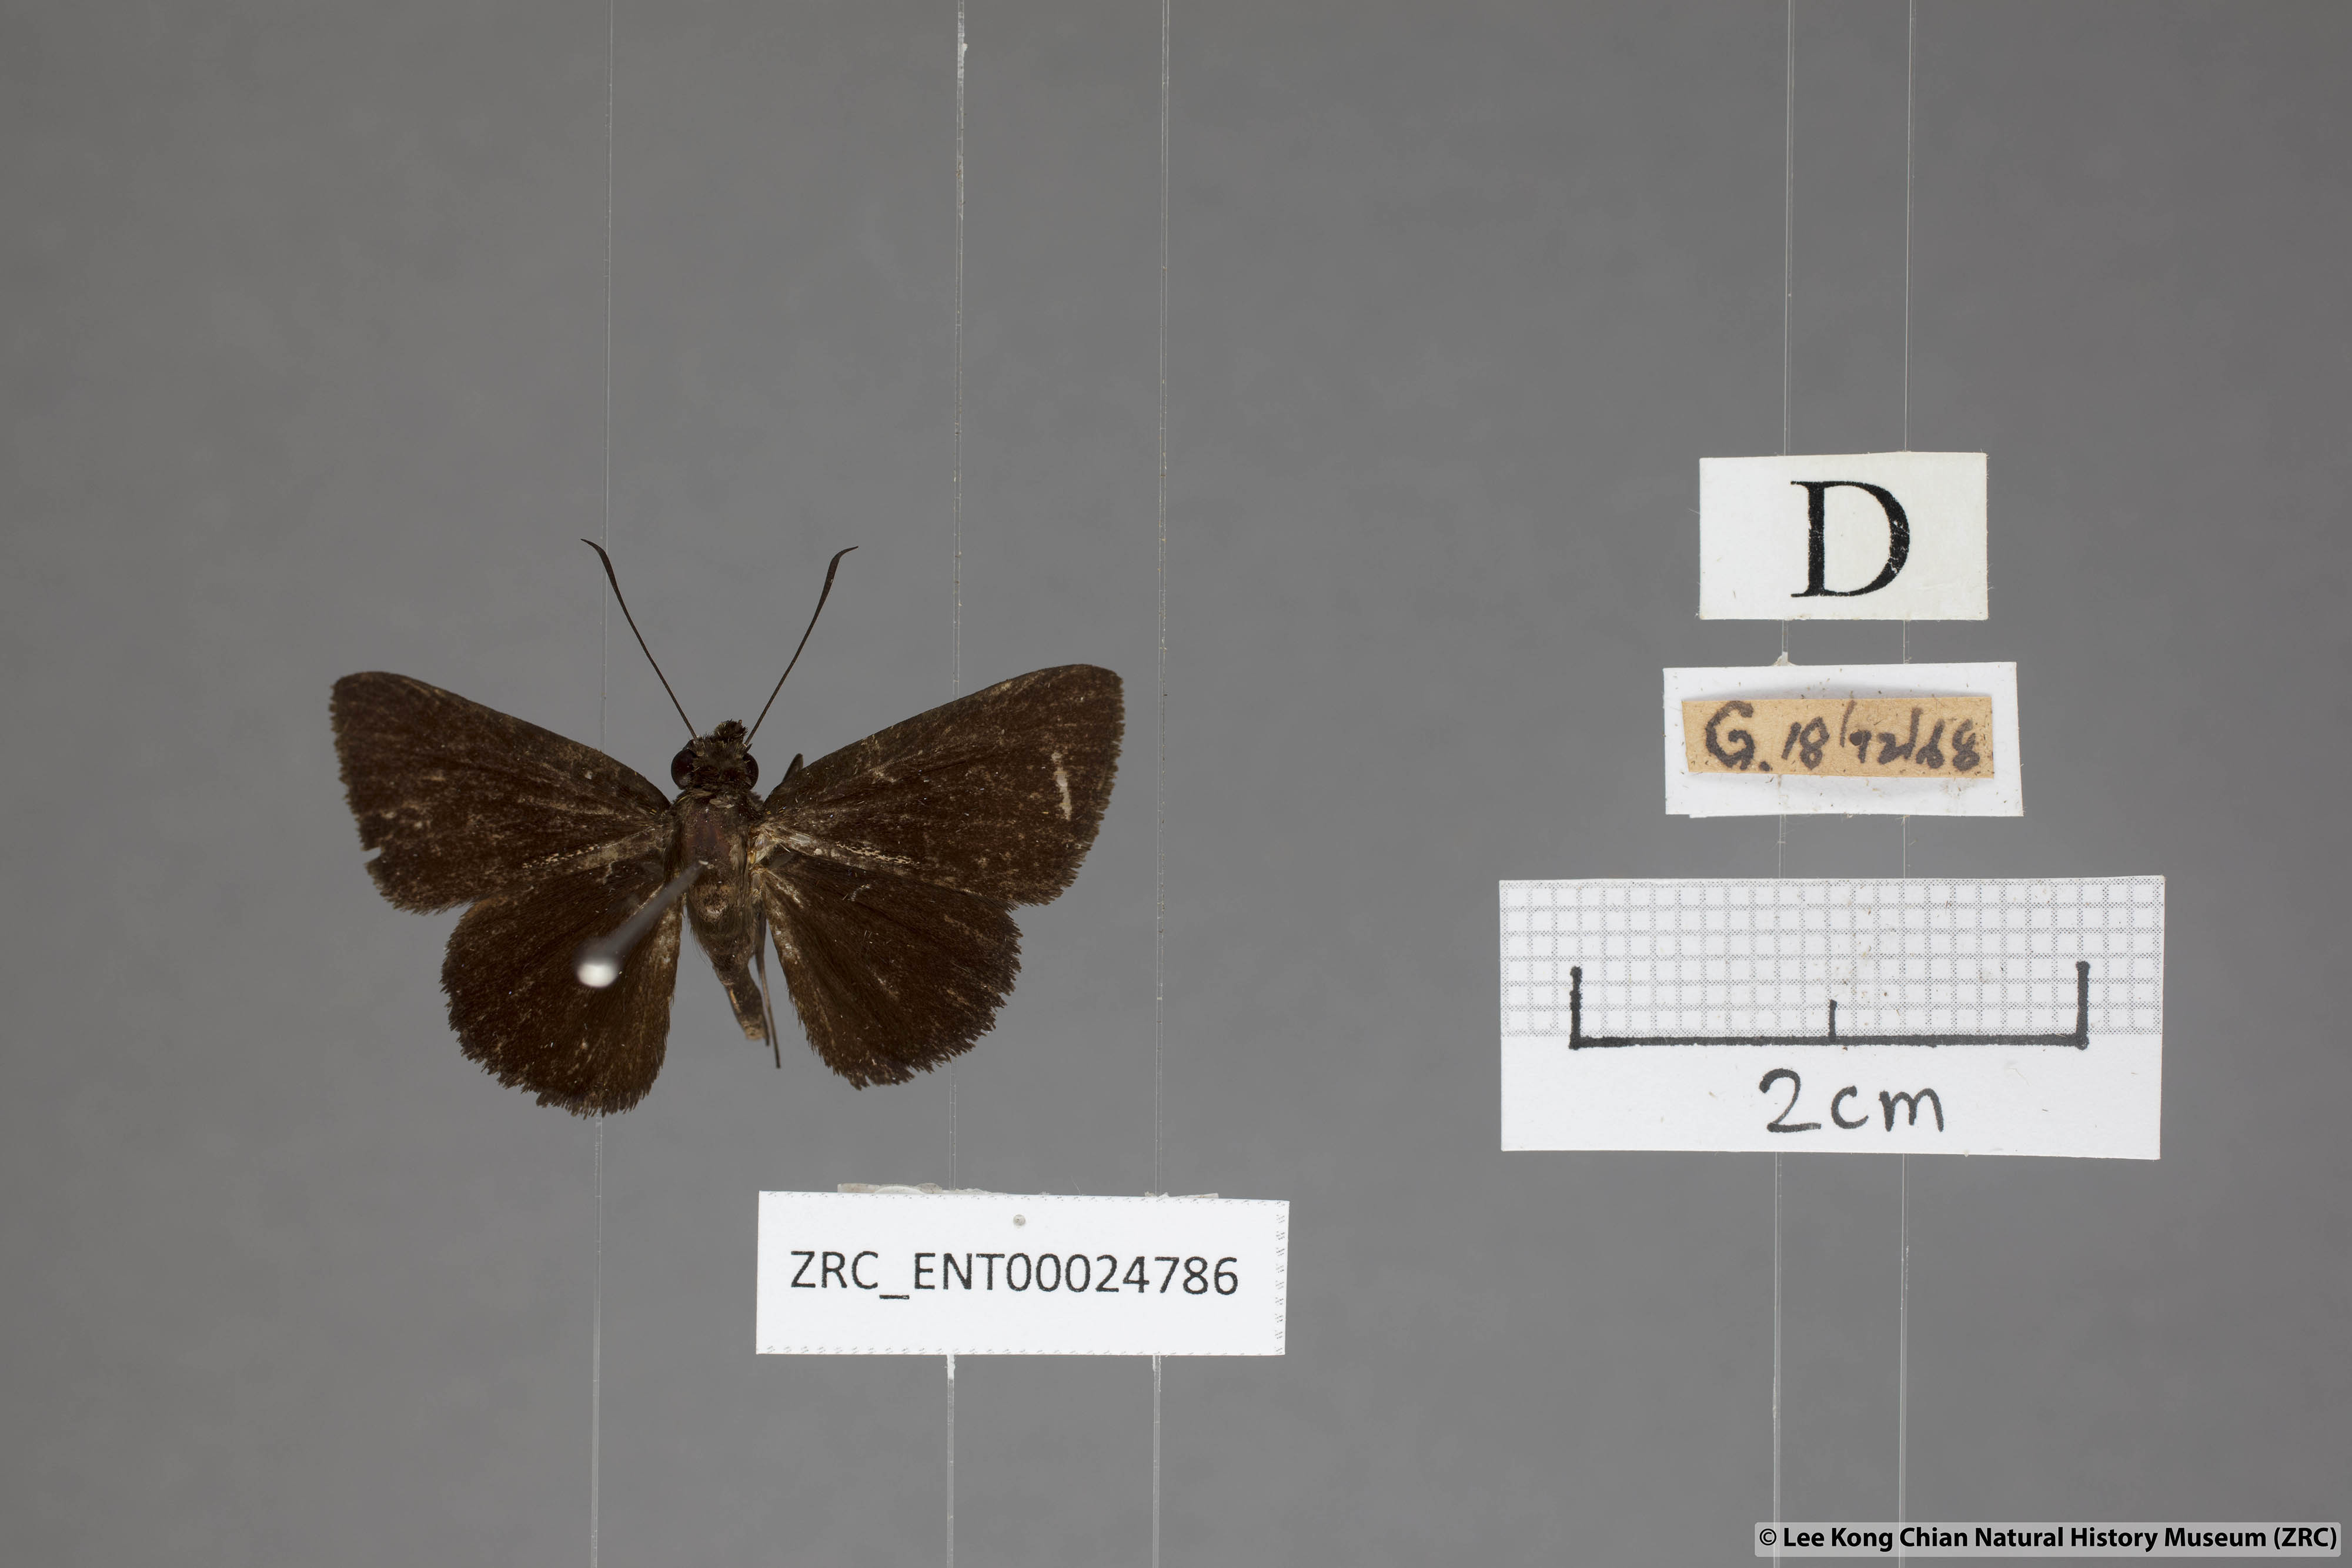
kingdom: Animalia
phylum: Arthropoda
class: Insecta
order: Lepidoptera
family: Hesperiidae
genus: Iambrix
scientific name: Iambrix
